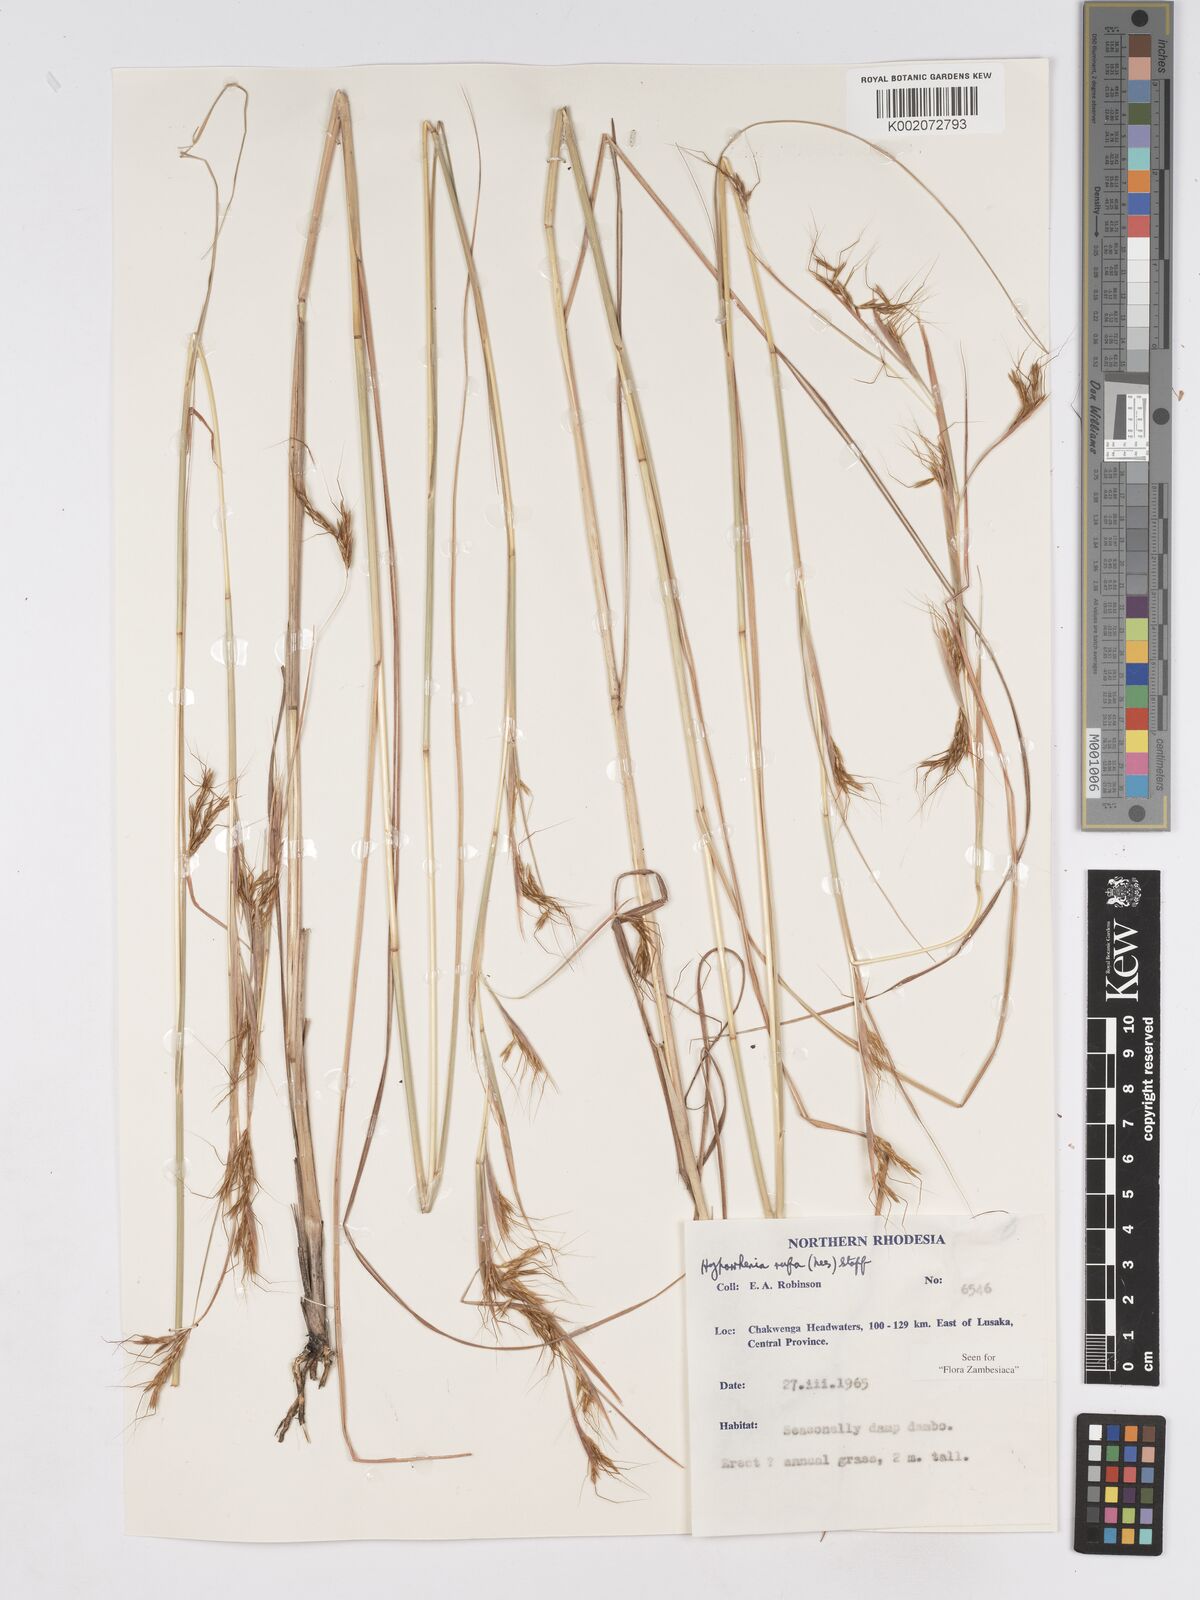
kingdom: Plantae
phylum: Tracheophyta
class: Liliopsida
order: Poales
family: Poaceae
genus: Hyparrhenia
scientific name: Hyparrhenia rufa
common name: Jaraguagrass
